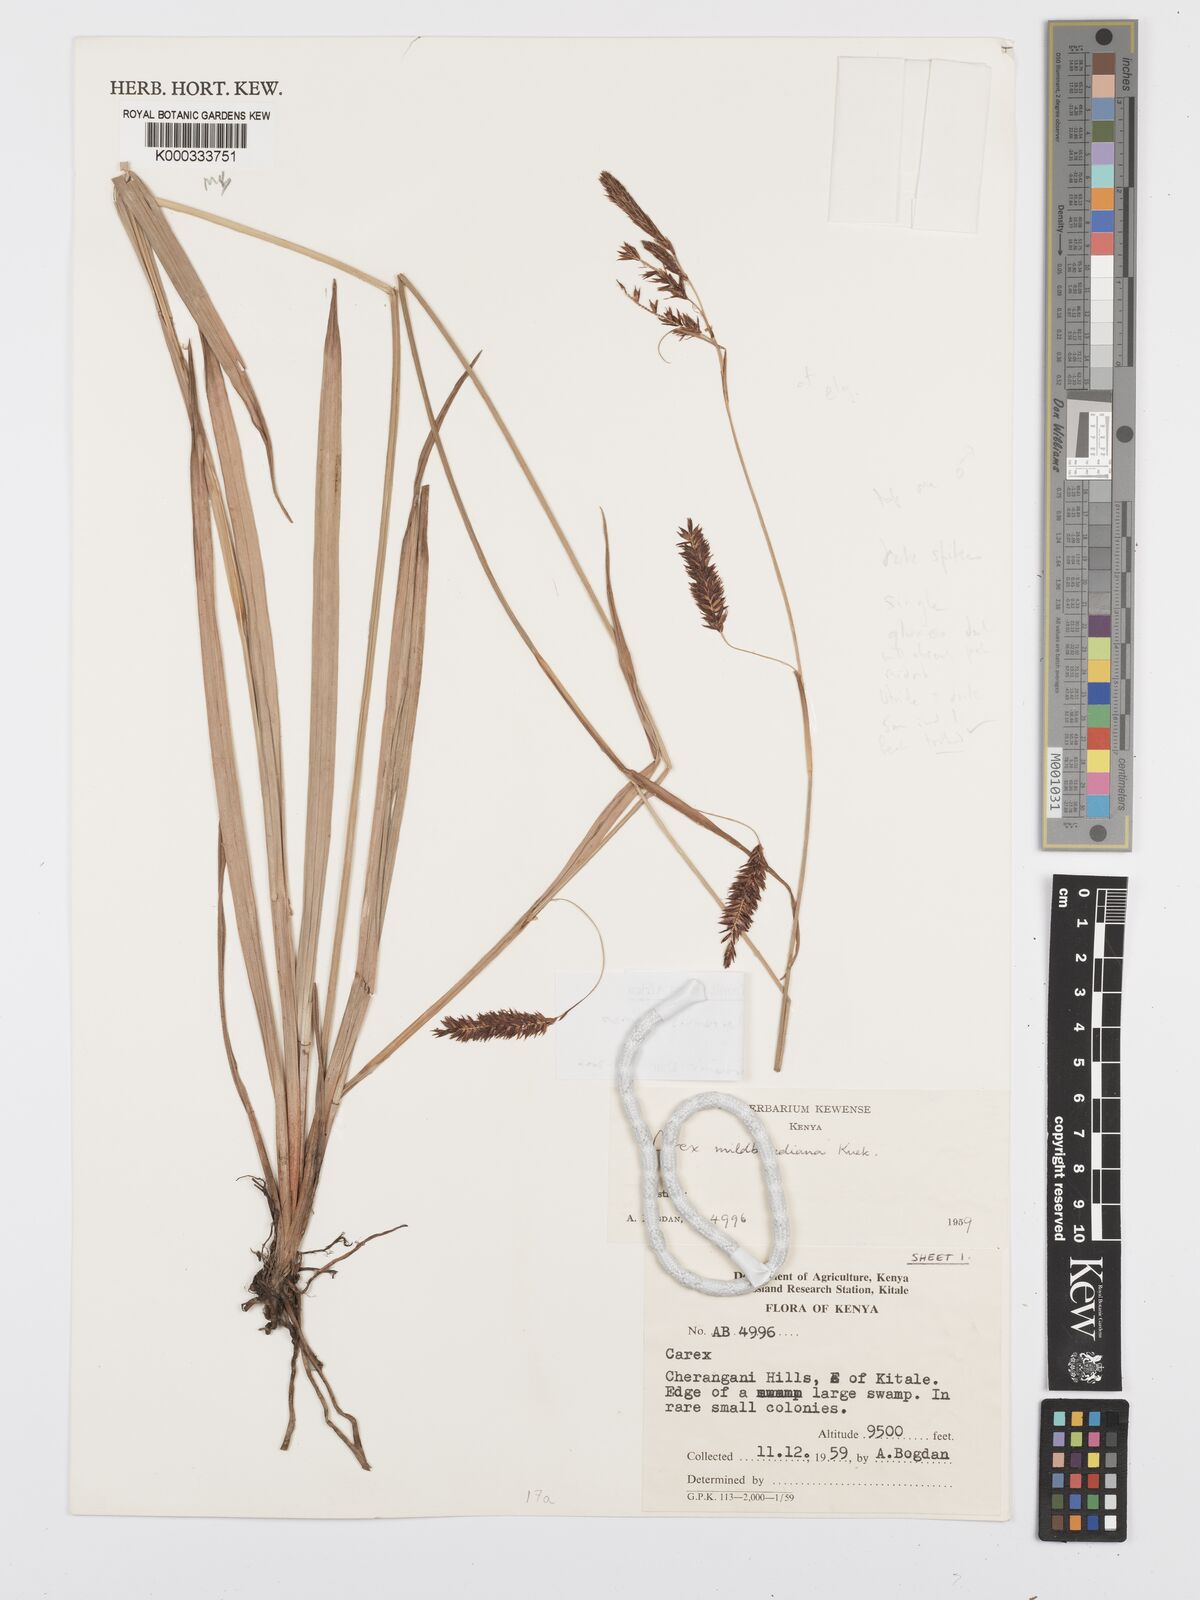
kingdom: Plantae
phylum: Tracheophyta
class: Liliopsida
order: Poales
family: Cyperaceae
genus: Carex
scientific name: Carex elgonensis
